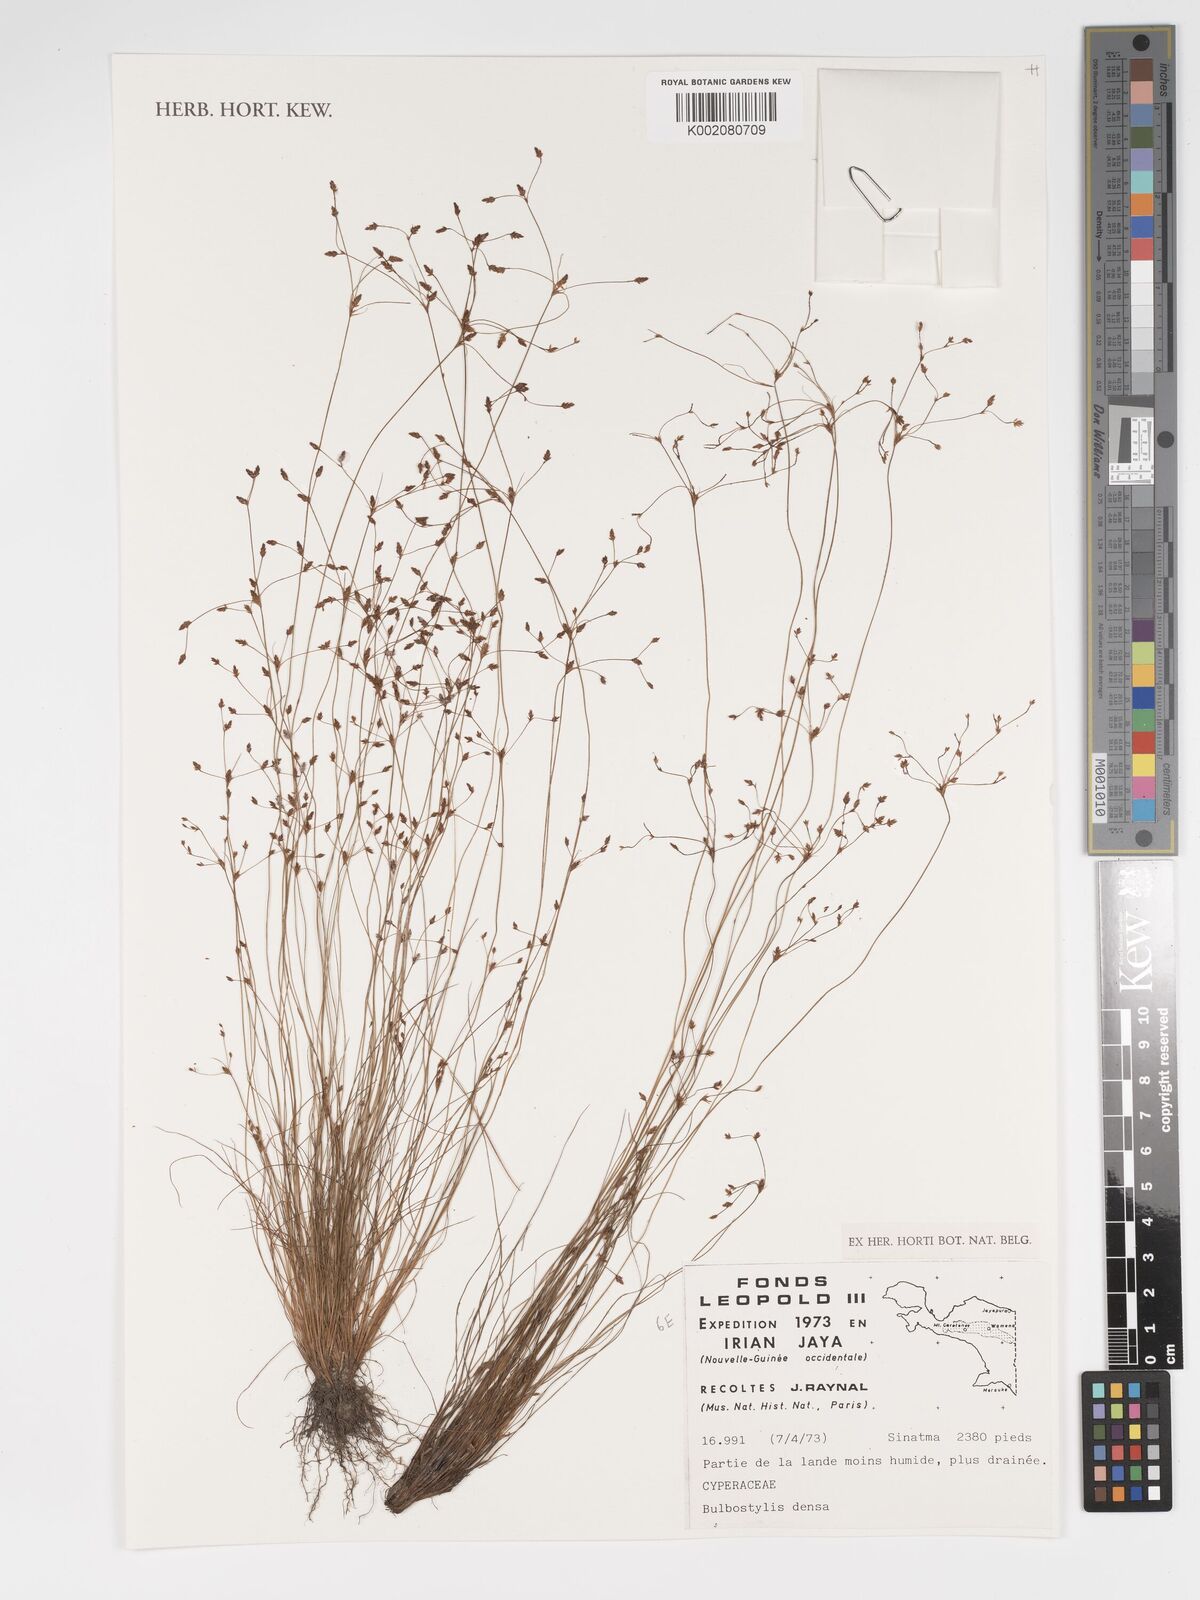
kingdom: Plantae
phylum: Tracheophyta
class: Liliopsida
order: Poales
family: Cyperaceae
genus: Bulbostylis
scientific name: Bulbostylis densa
